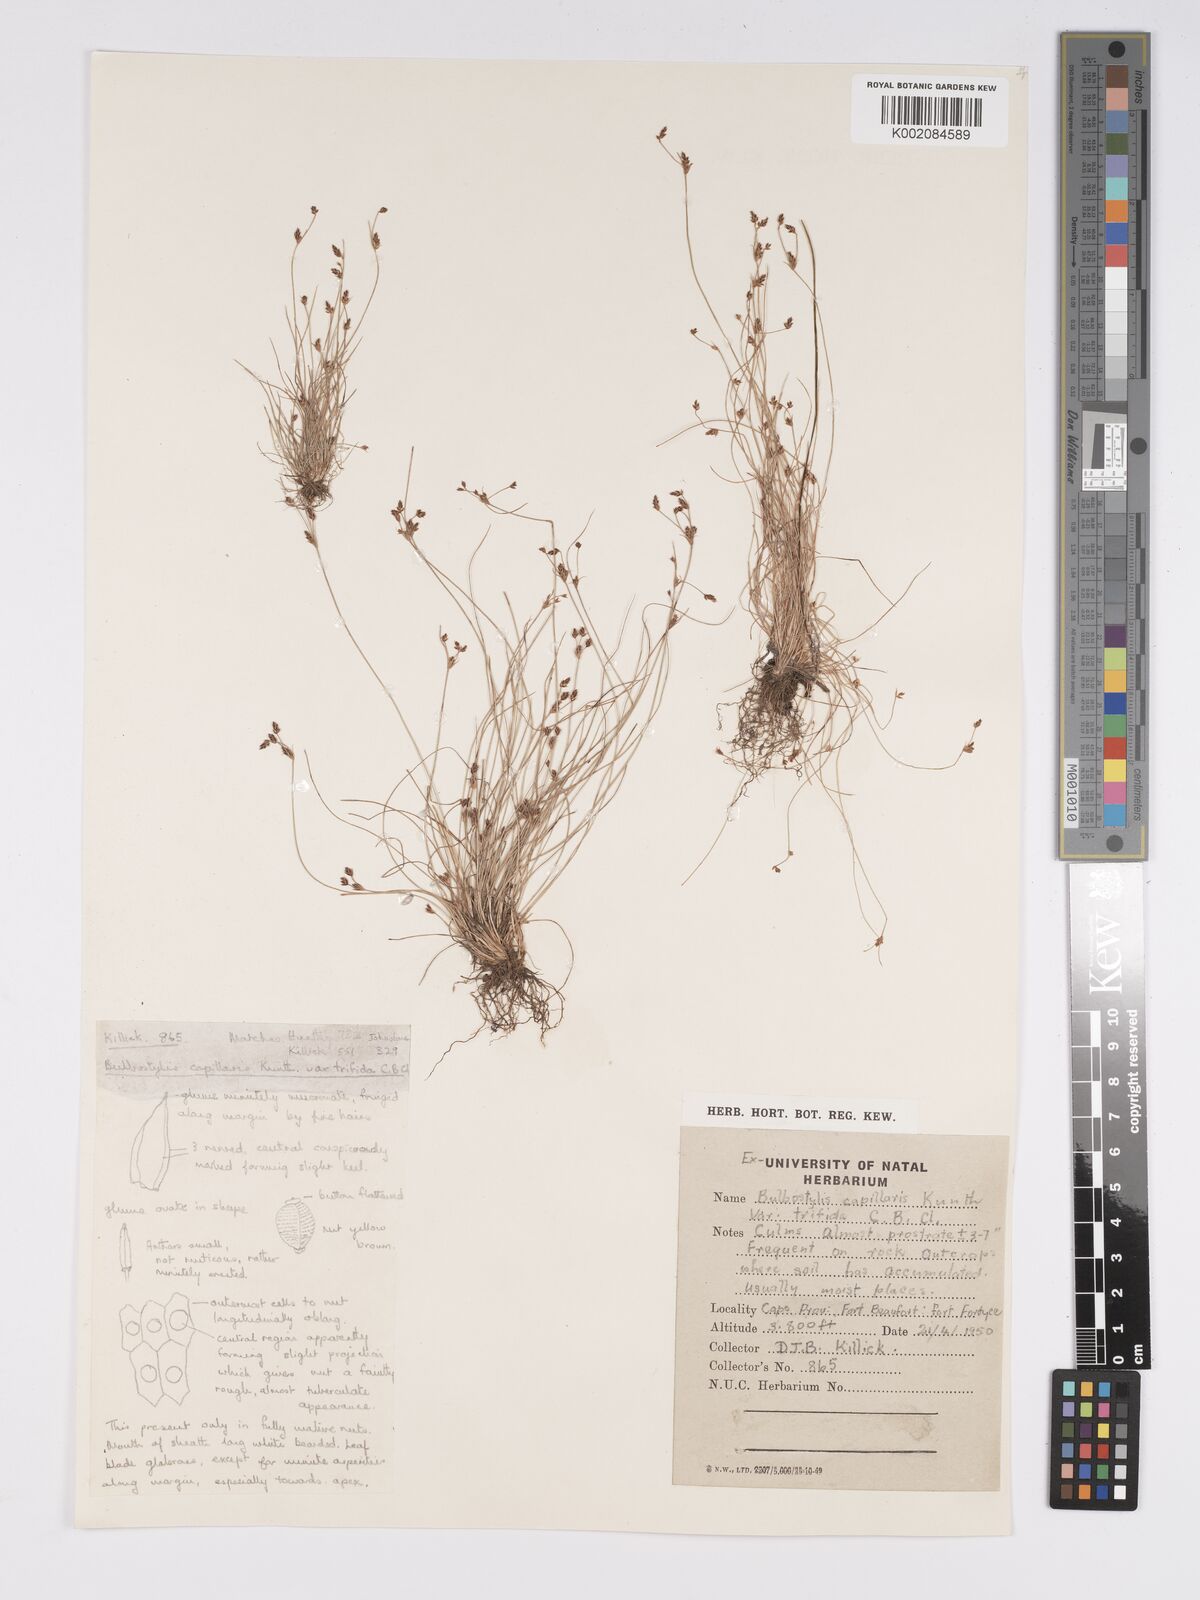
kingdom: Plantae
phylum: Tracheophyta
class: Liliopsida
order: Poales
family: Cyperaceae
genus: Bulbostylis
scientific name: Bulbostylis truncata
